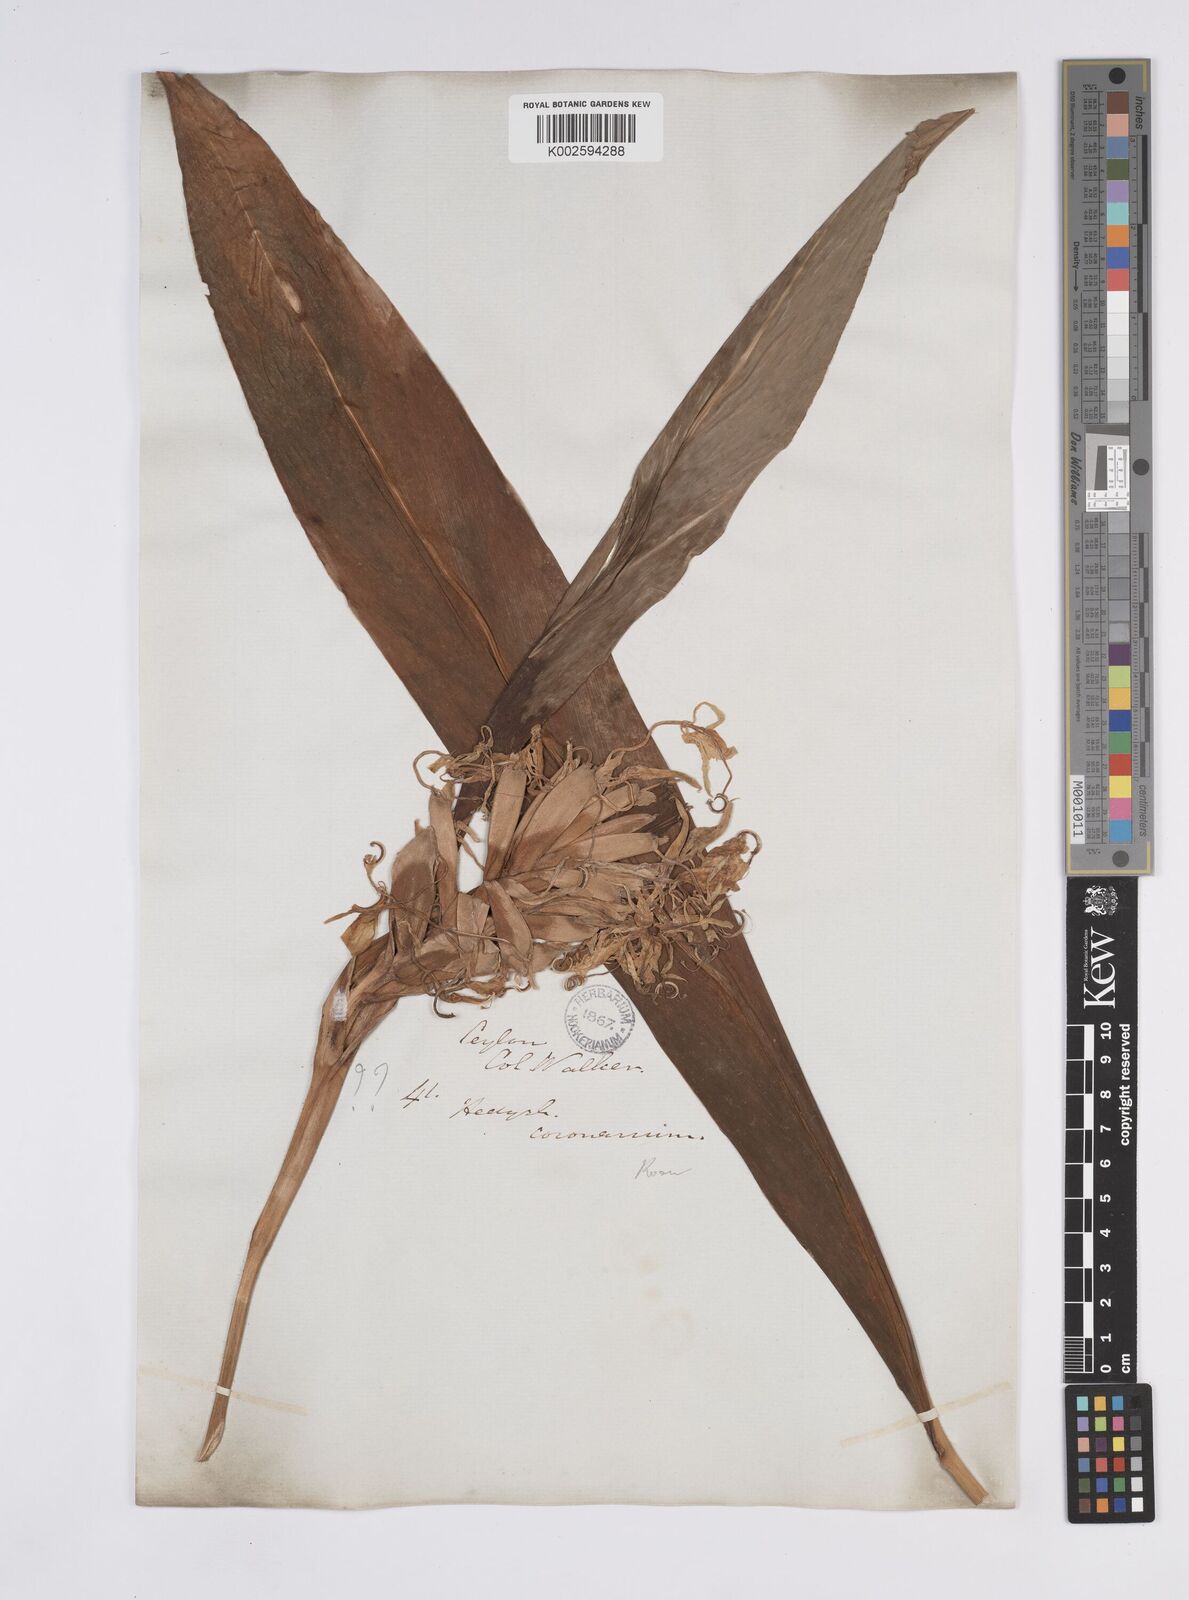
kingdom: Plantae
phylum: Tracheophyta
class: Liliopsida
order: Zingiberales
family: Zingiberaceae
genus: Hedychium
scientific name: Hedychium coronarium
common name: White garland-lily
